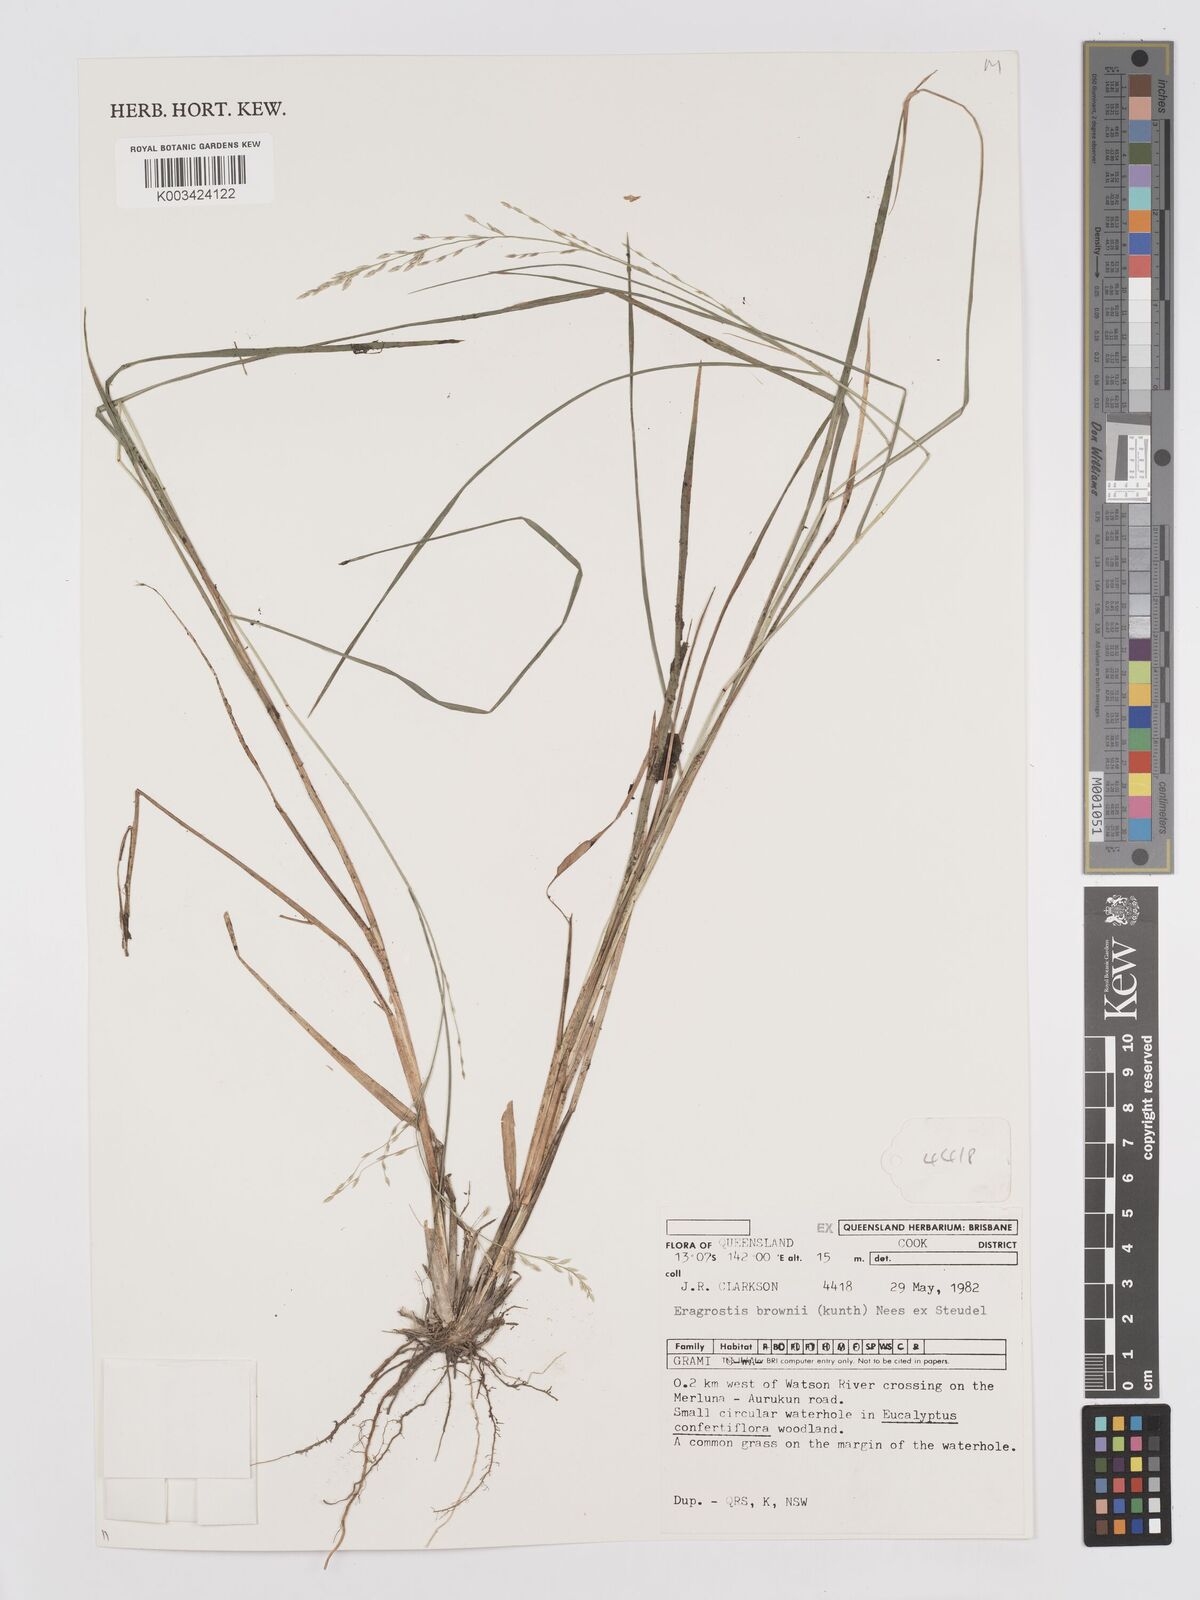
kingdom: Plantae
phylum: Tracheophyta
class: Liliopsida
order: Poales
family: Poaceae
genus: Eragrostis
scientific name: Eragrostis brownii
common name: Lovegrass
